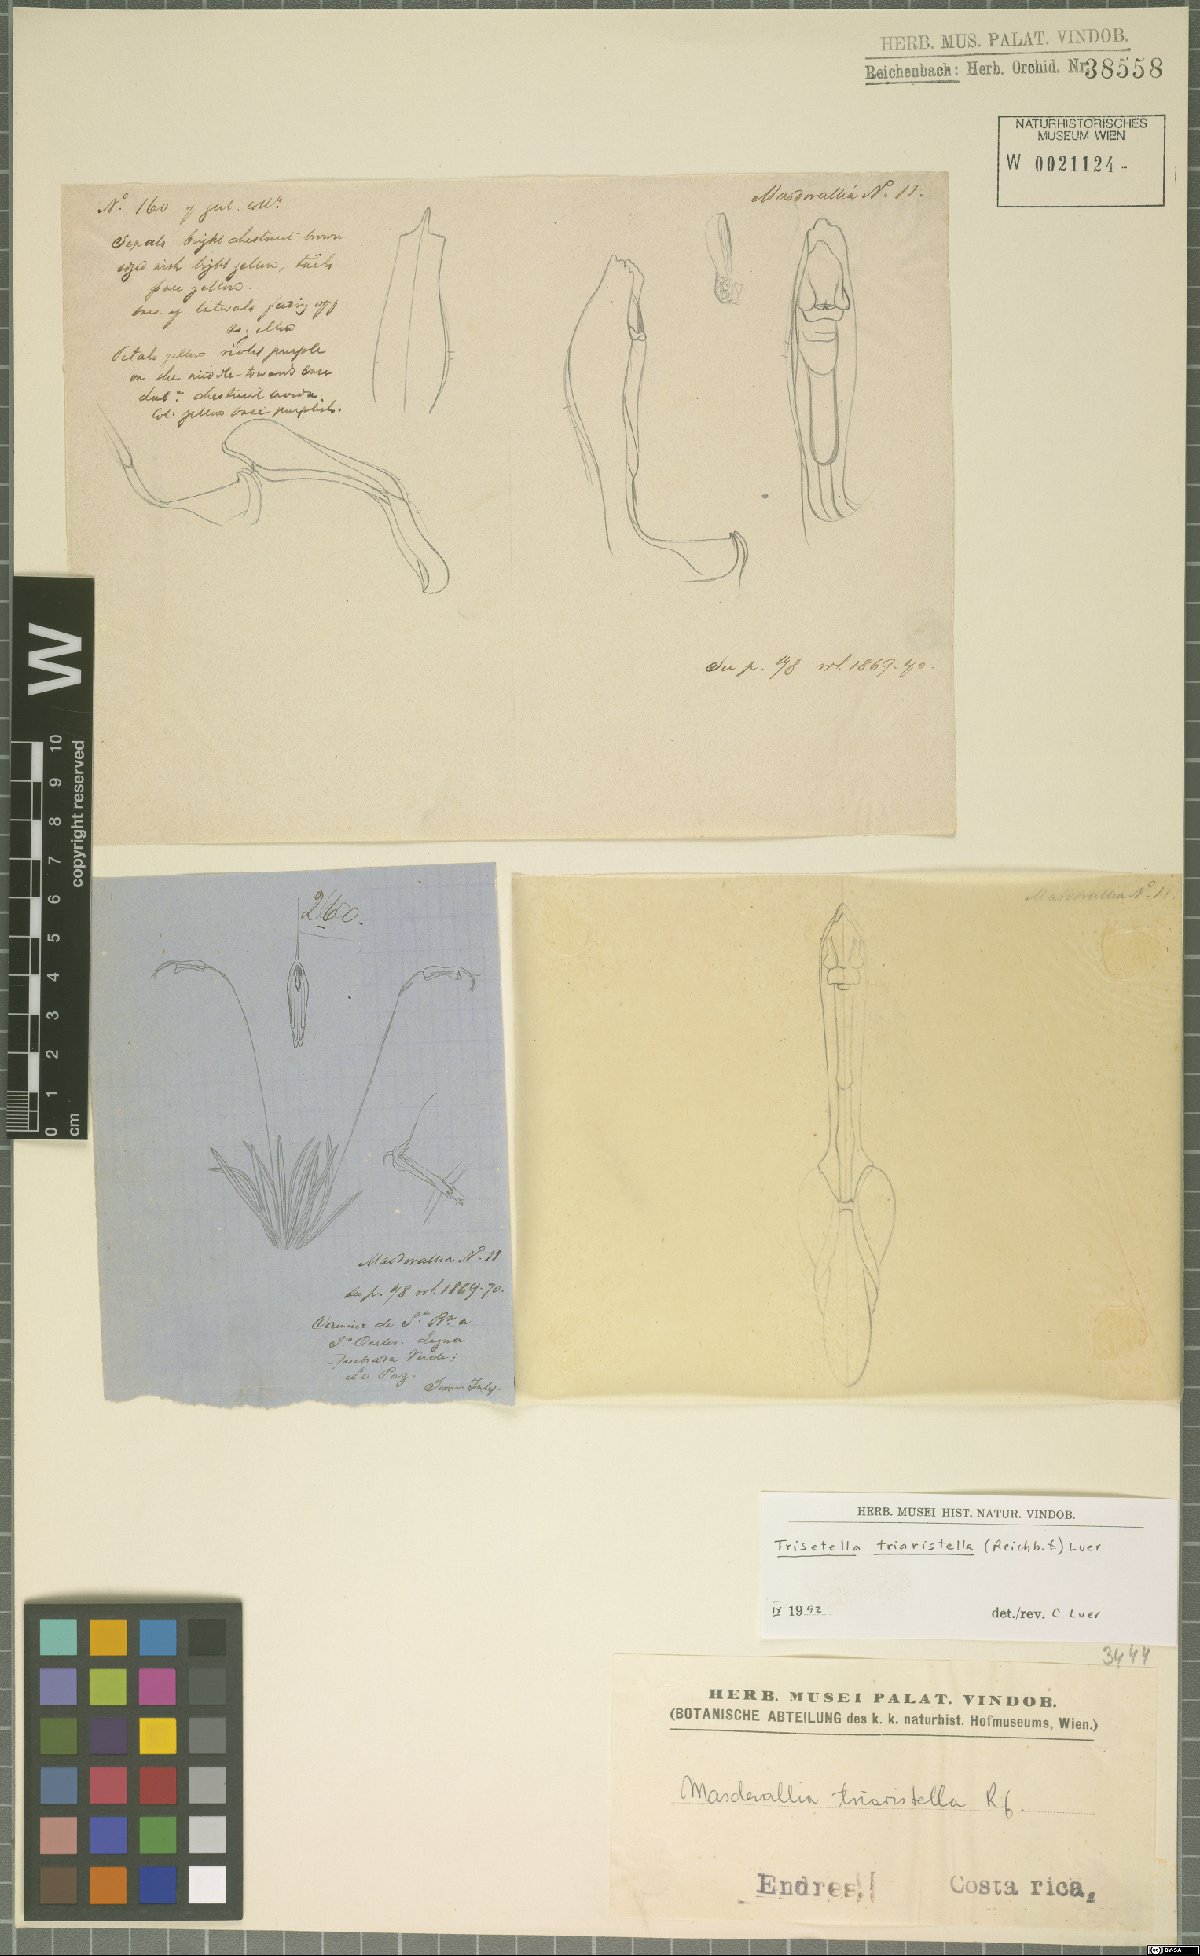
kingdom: Plantae
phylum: Tracheophyta
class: Liliopsida
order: Asparagales
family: Orchidaceae
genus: Trisetella
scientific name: Trisetella triaristella
